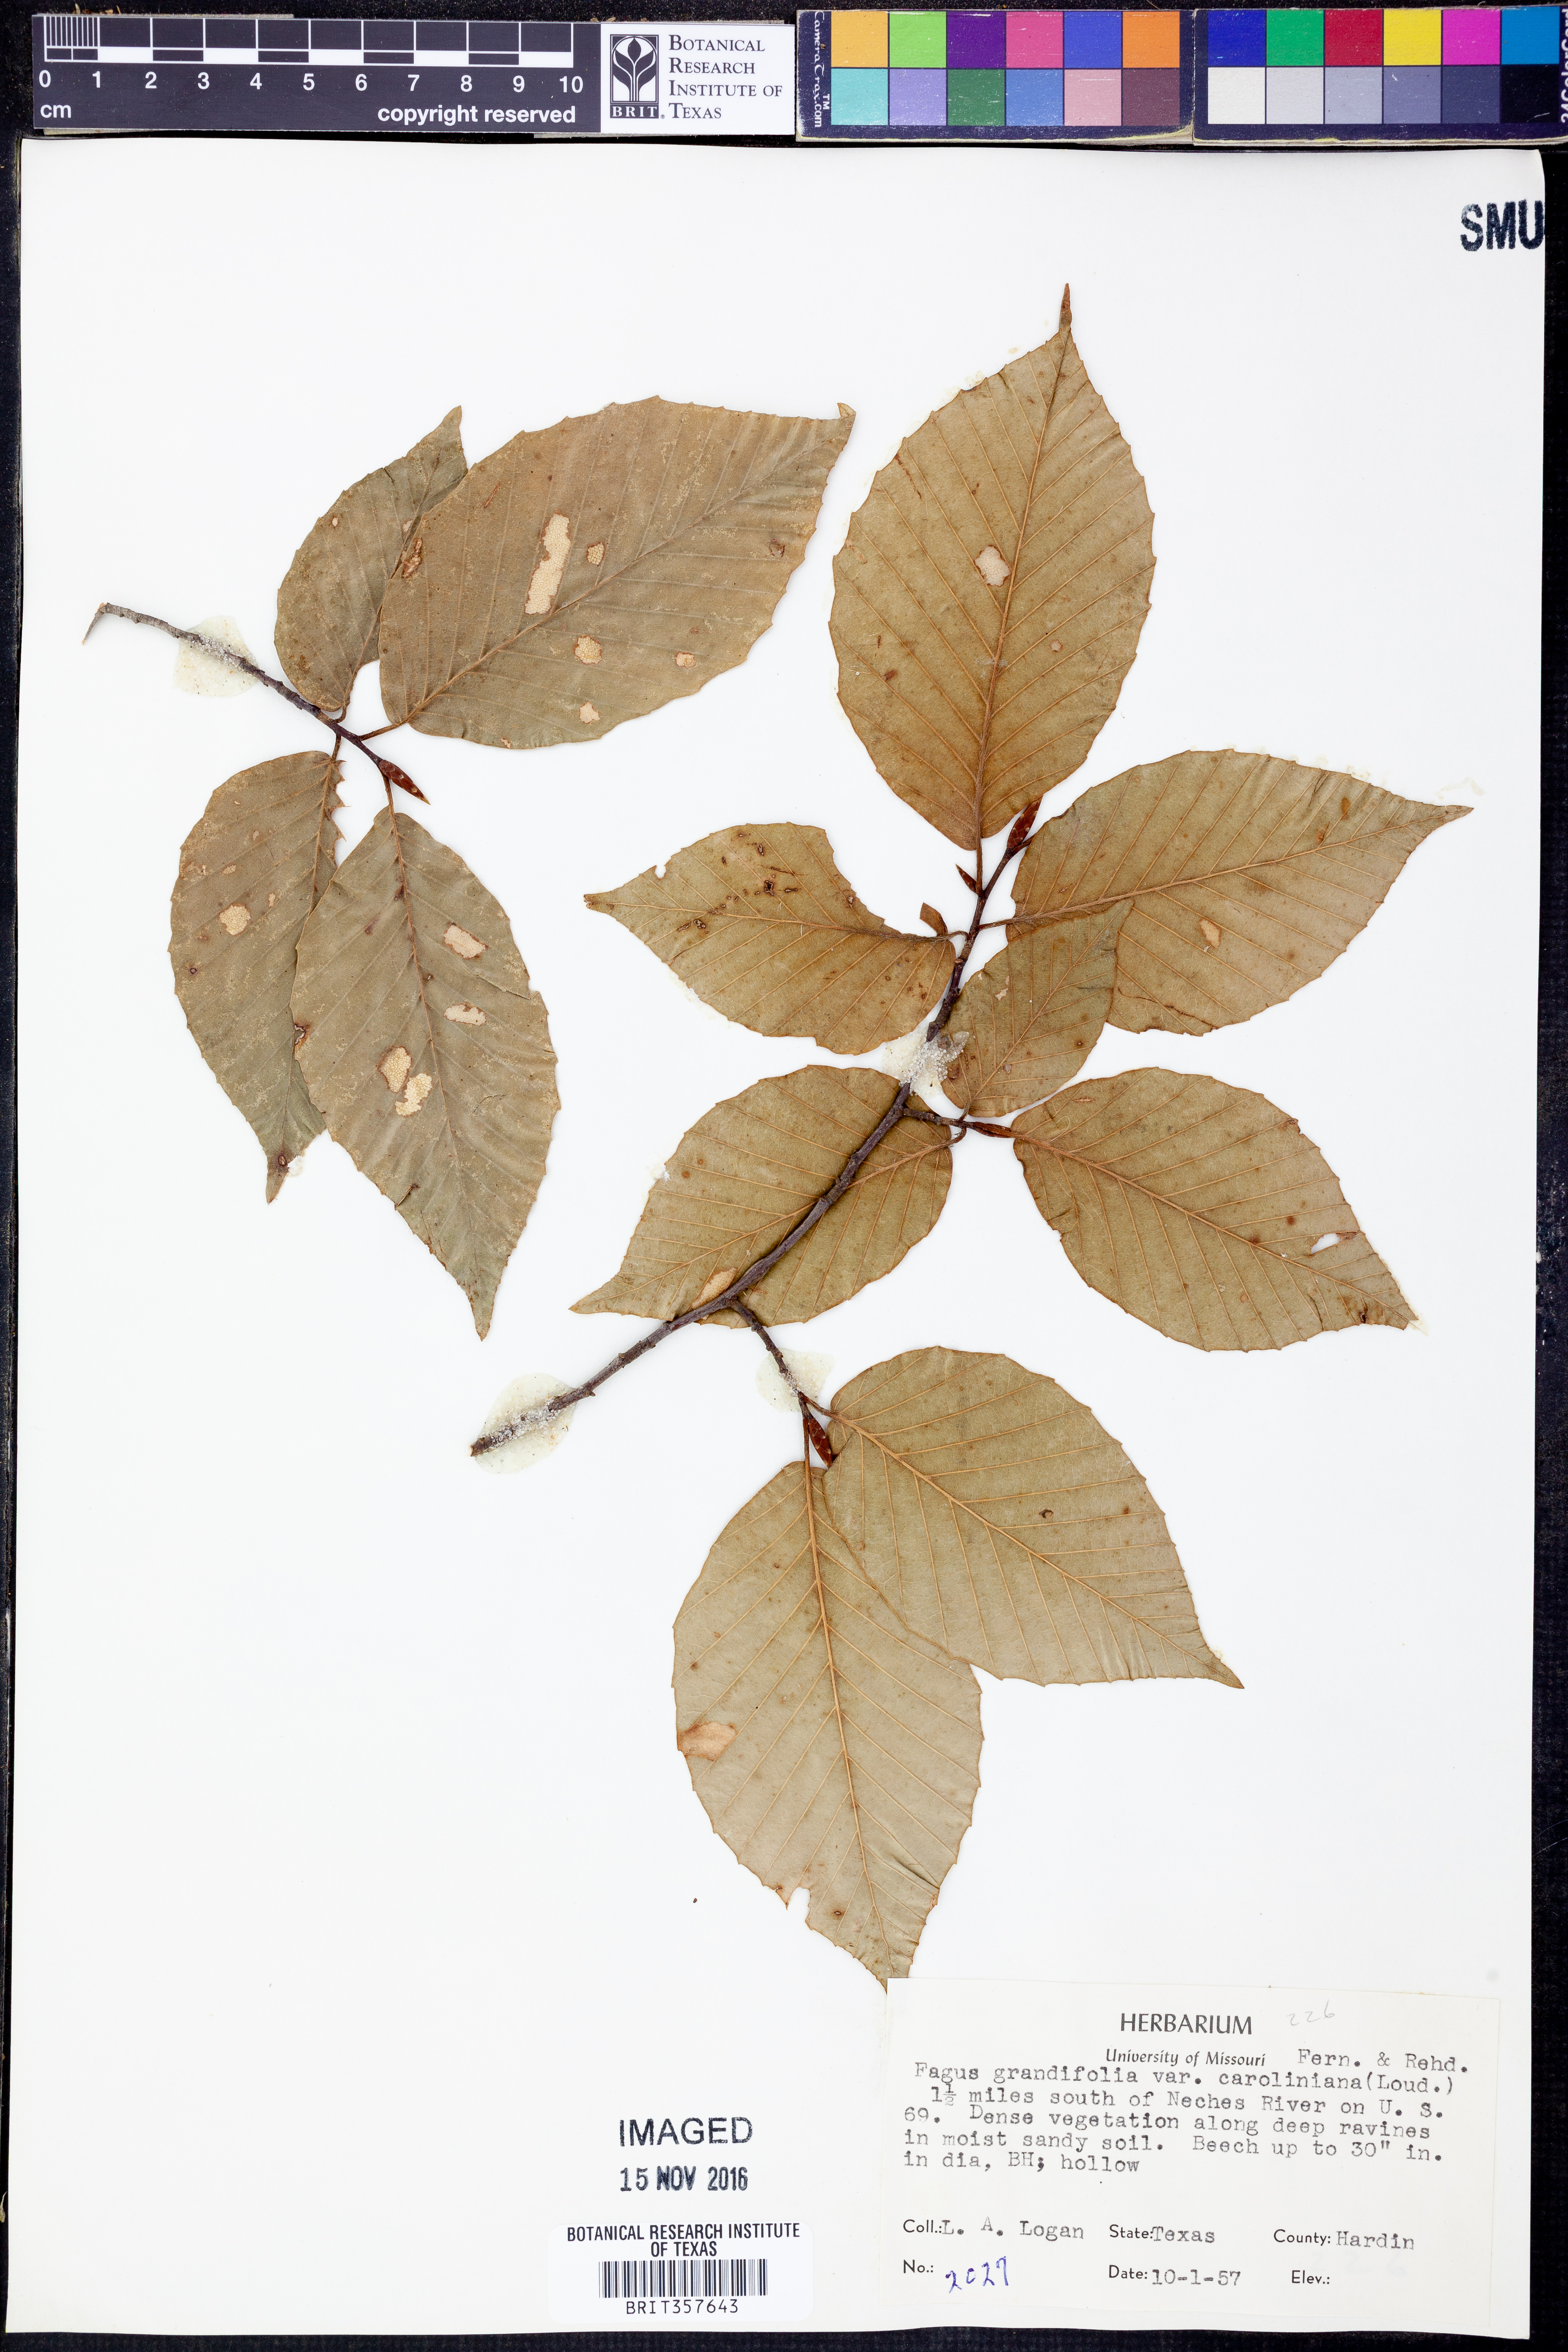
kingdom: Plantae
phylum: Tracheophyta
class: Magnoliopsida
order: Fagales
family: Fagaceae
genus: Fagus
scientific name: Fagus grandifolia
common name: American beech
